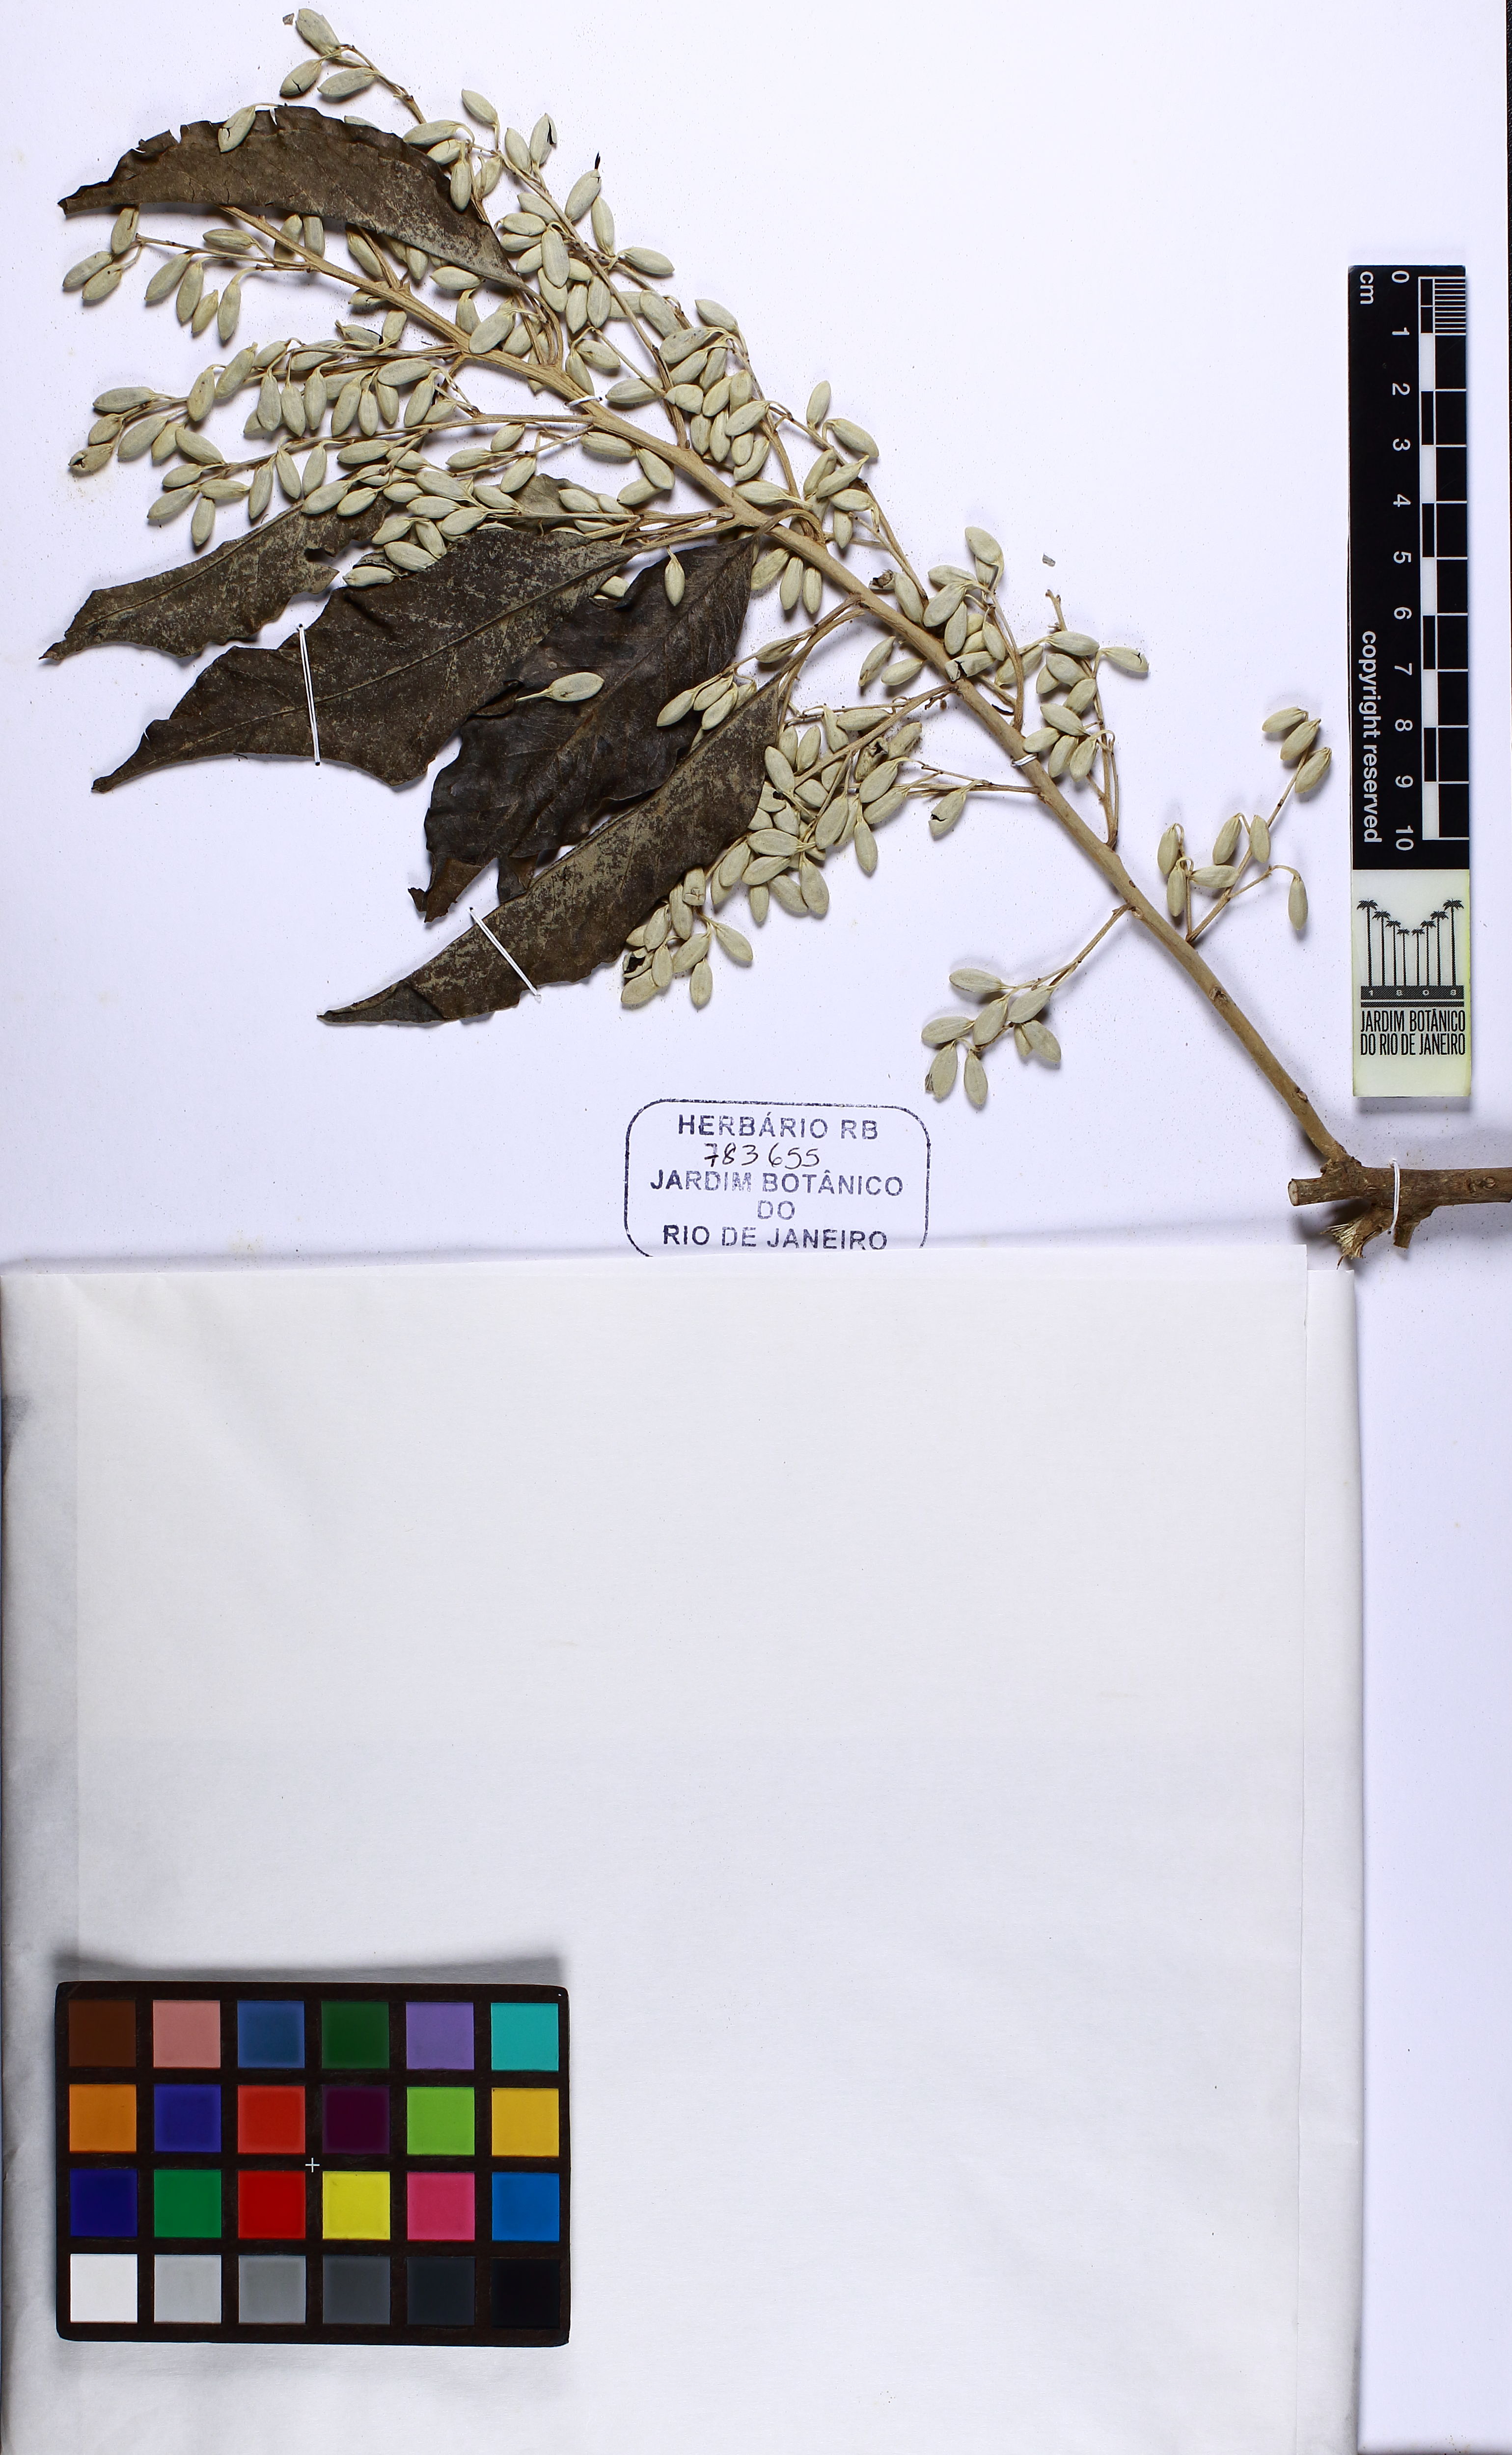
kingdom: Plantae
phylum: Tracheophyta
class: Magnoliopsida
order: Caryophyllales
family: Nyctaginaceae
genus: Andradea
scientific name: Andradea floribunda
